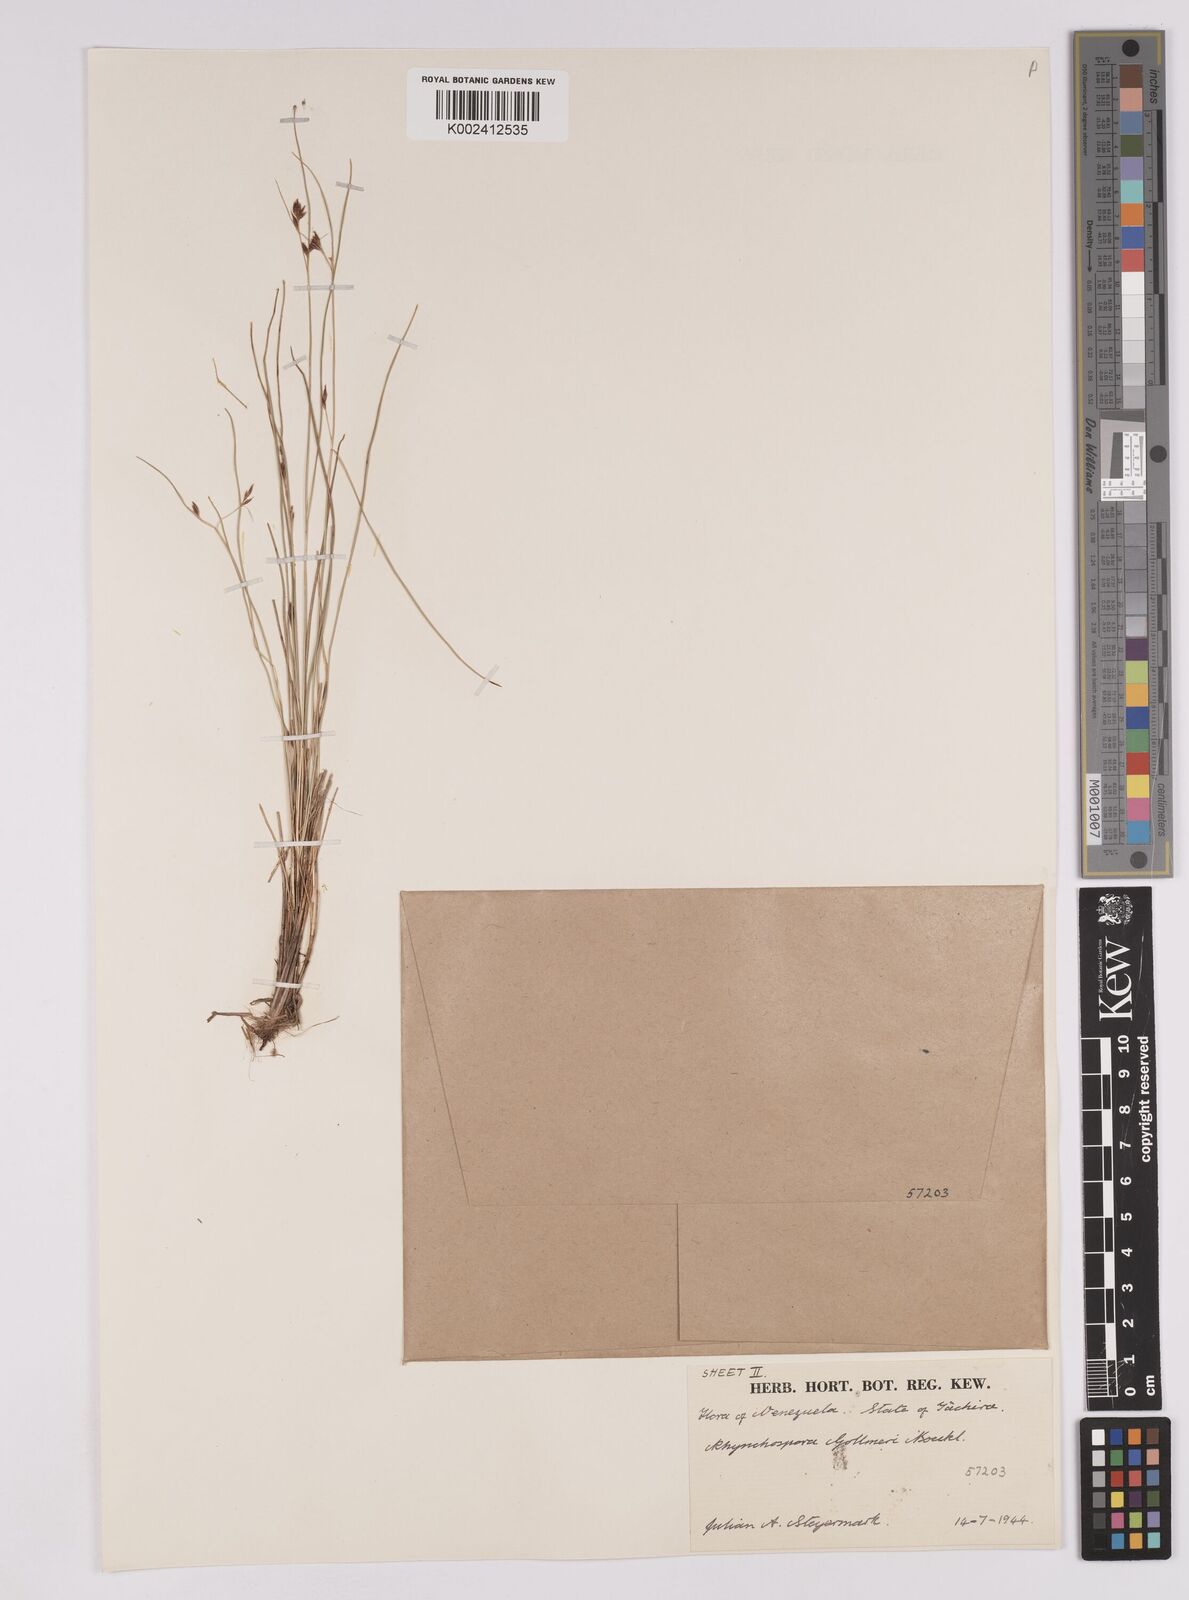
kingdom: Plantae
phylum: Tracheophyta
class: Liliopsida
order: Poales
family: Cyperaceae
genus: Rhynchospora
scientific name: Rhynchospora gollmeri
